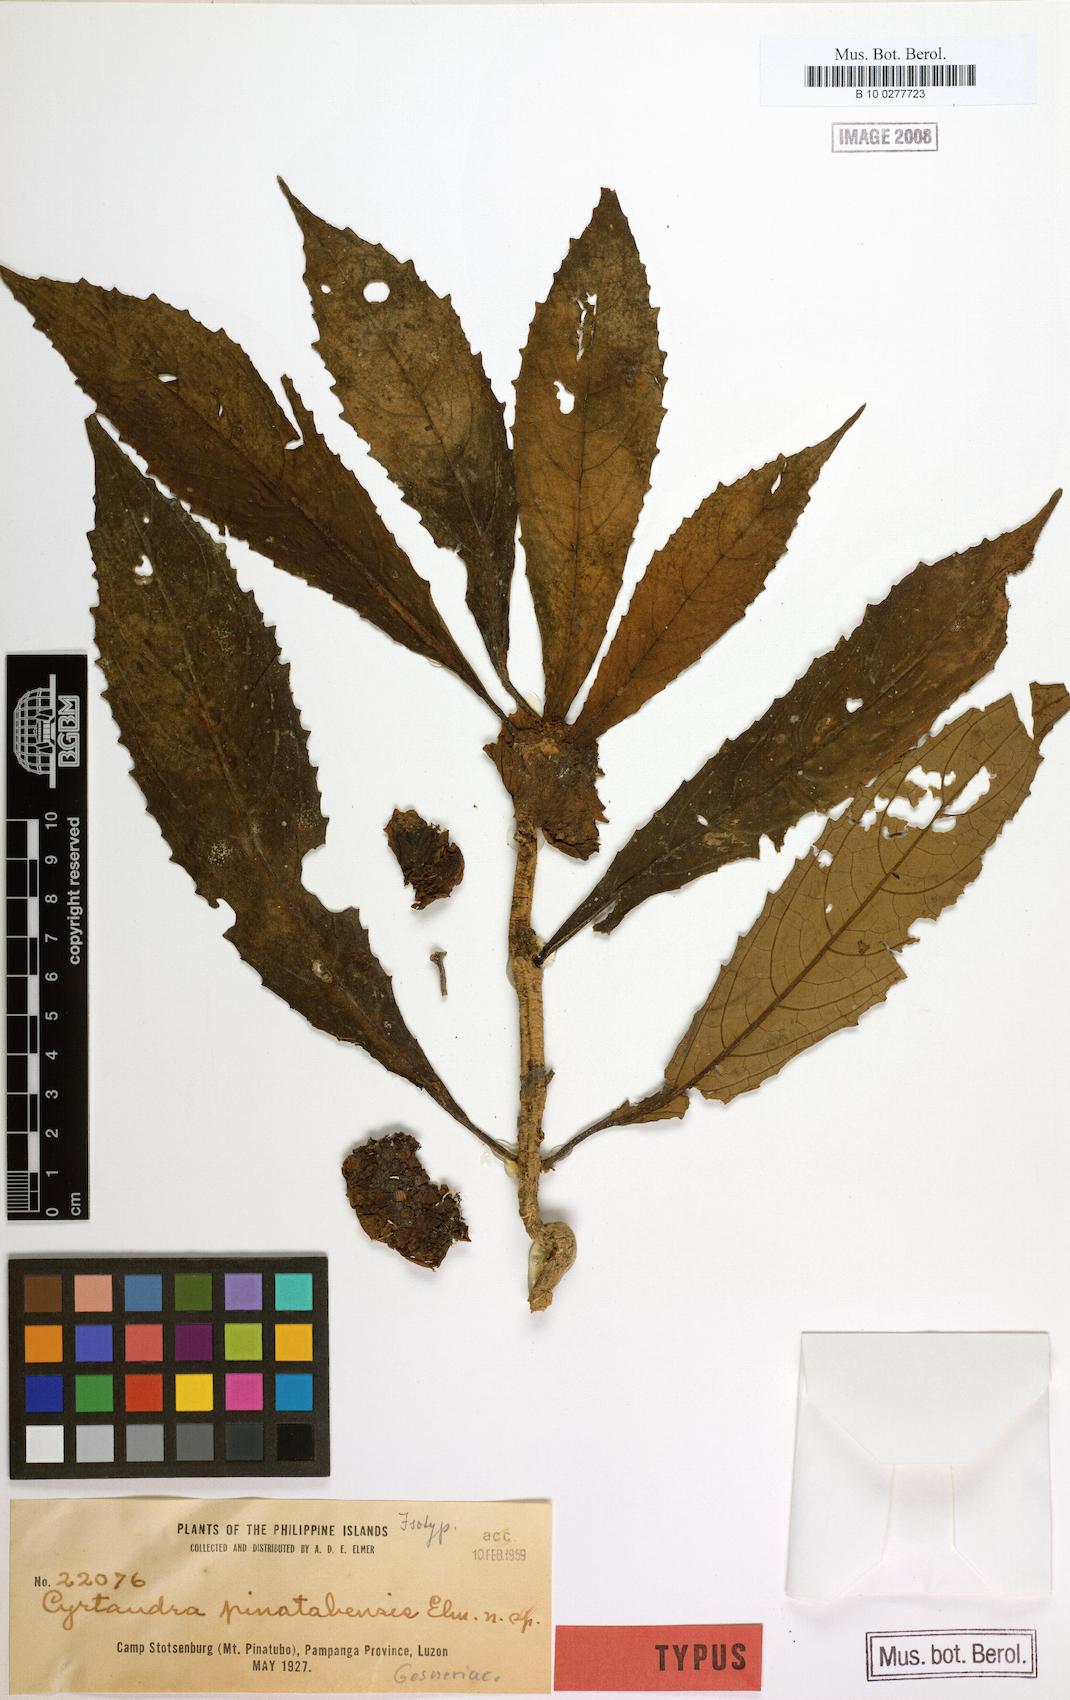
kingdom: Plantae
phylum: Tracheophyta
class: Magnoliopsida
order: Lamiales
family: Gesneriaceae
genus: Cyrtandra
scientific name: Cyrtandra pinatubensis
